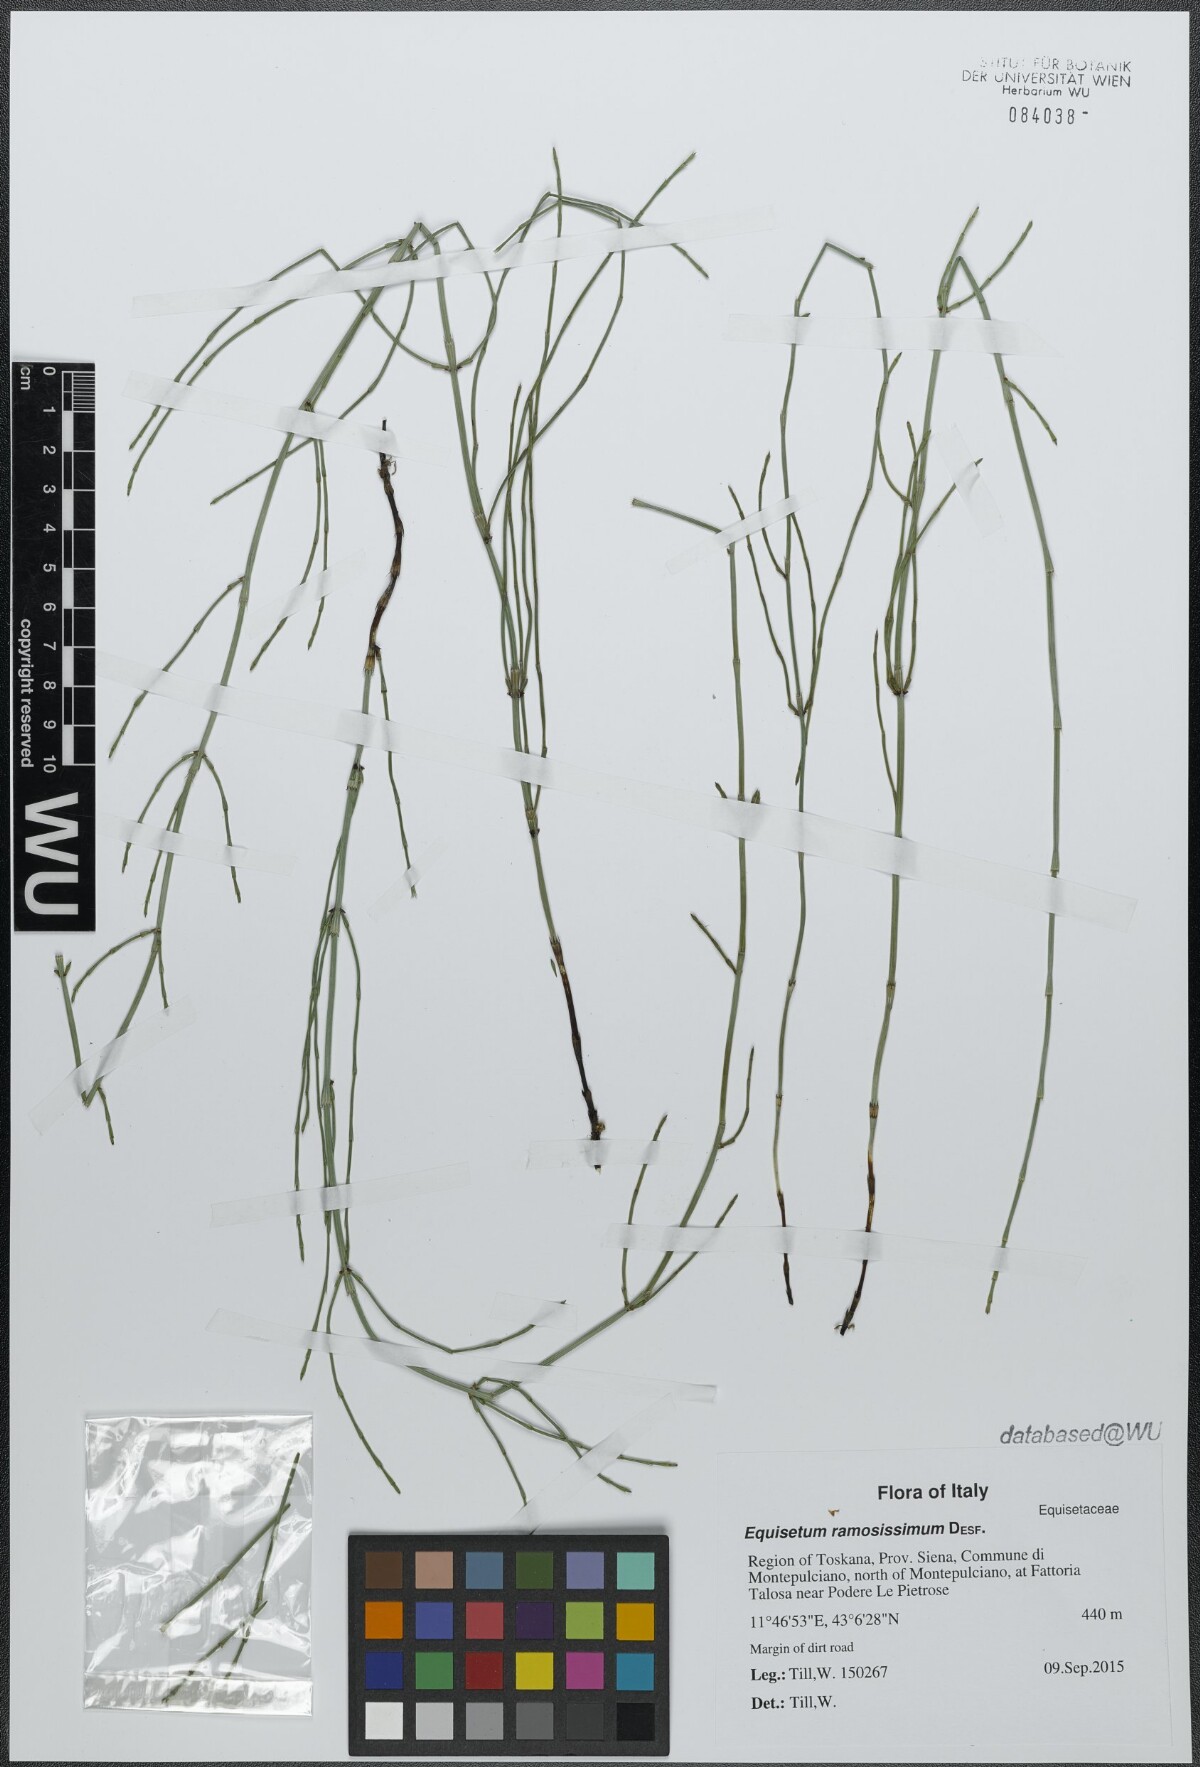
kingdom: Plantae
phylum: Tracheophyta
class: Polypodiopsida
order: Equisetales
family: Equisetaceae
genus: Equisetum
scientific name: Equisetum ramosissimum
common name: Branched horsetail
